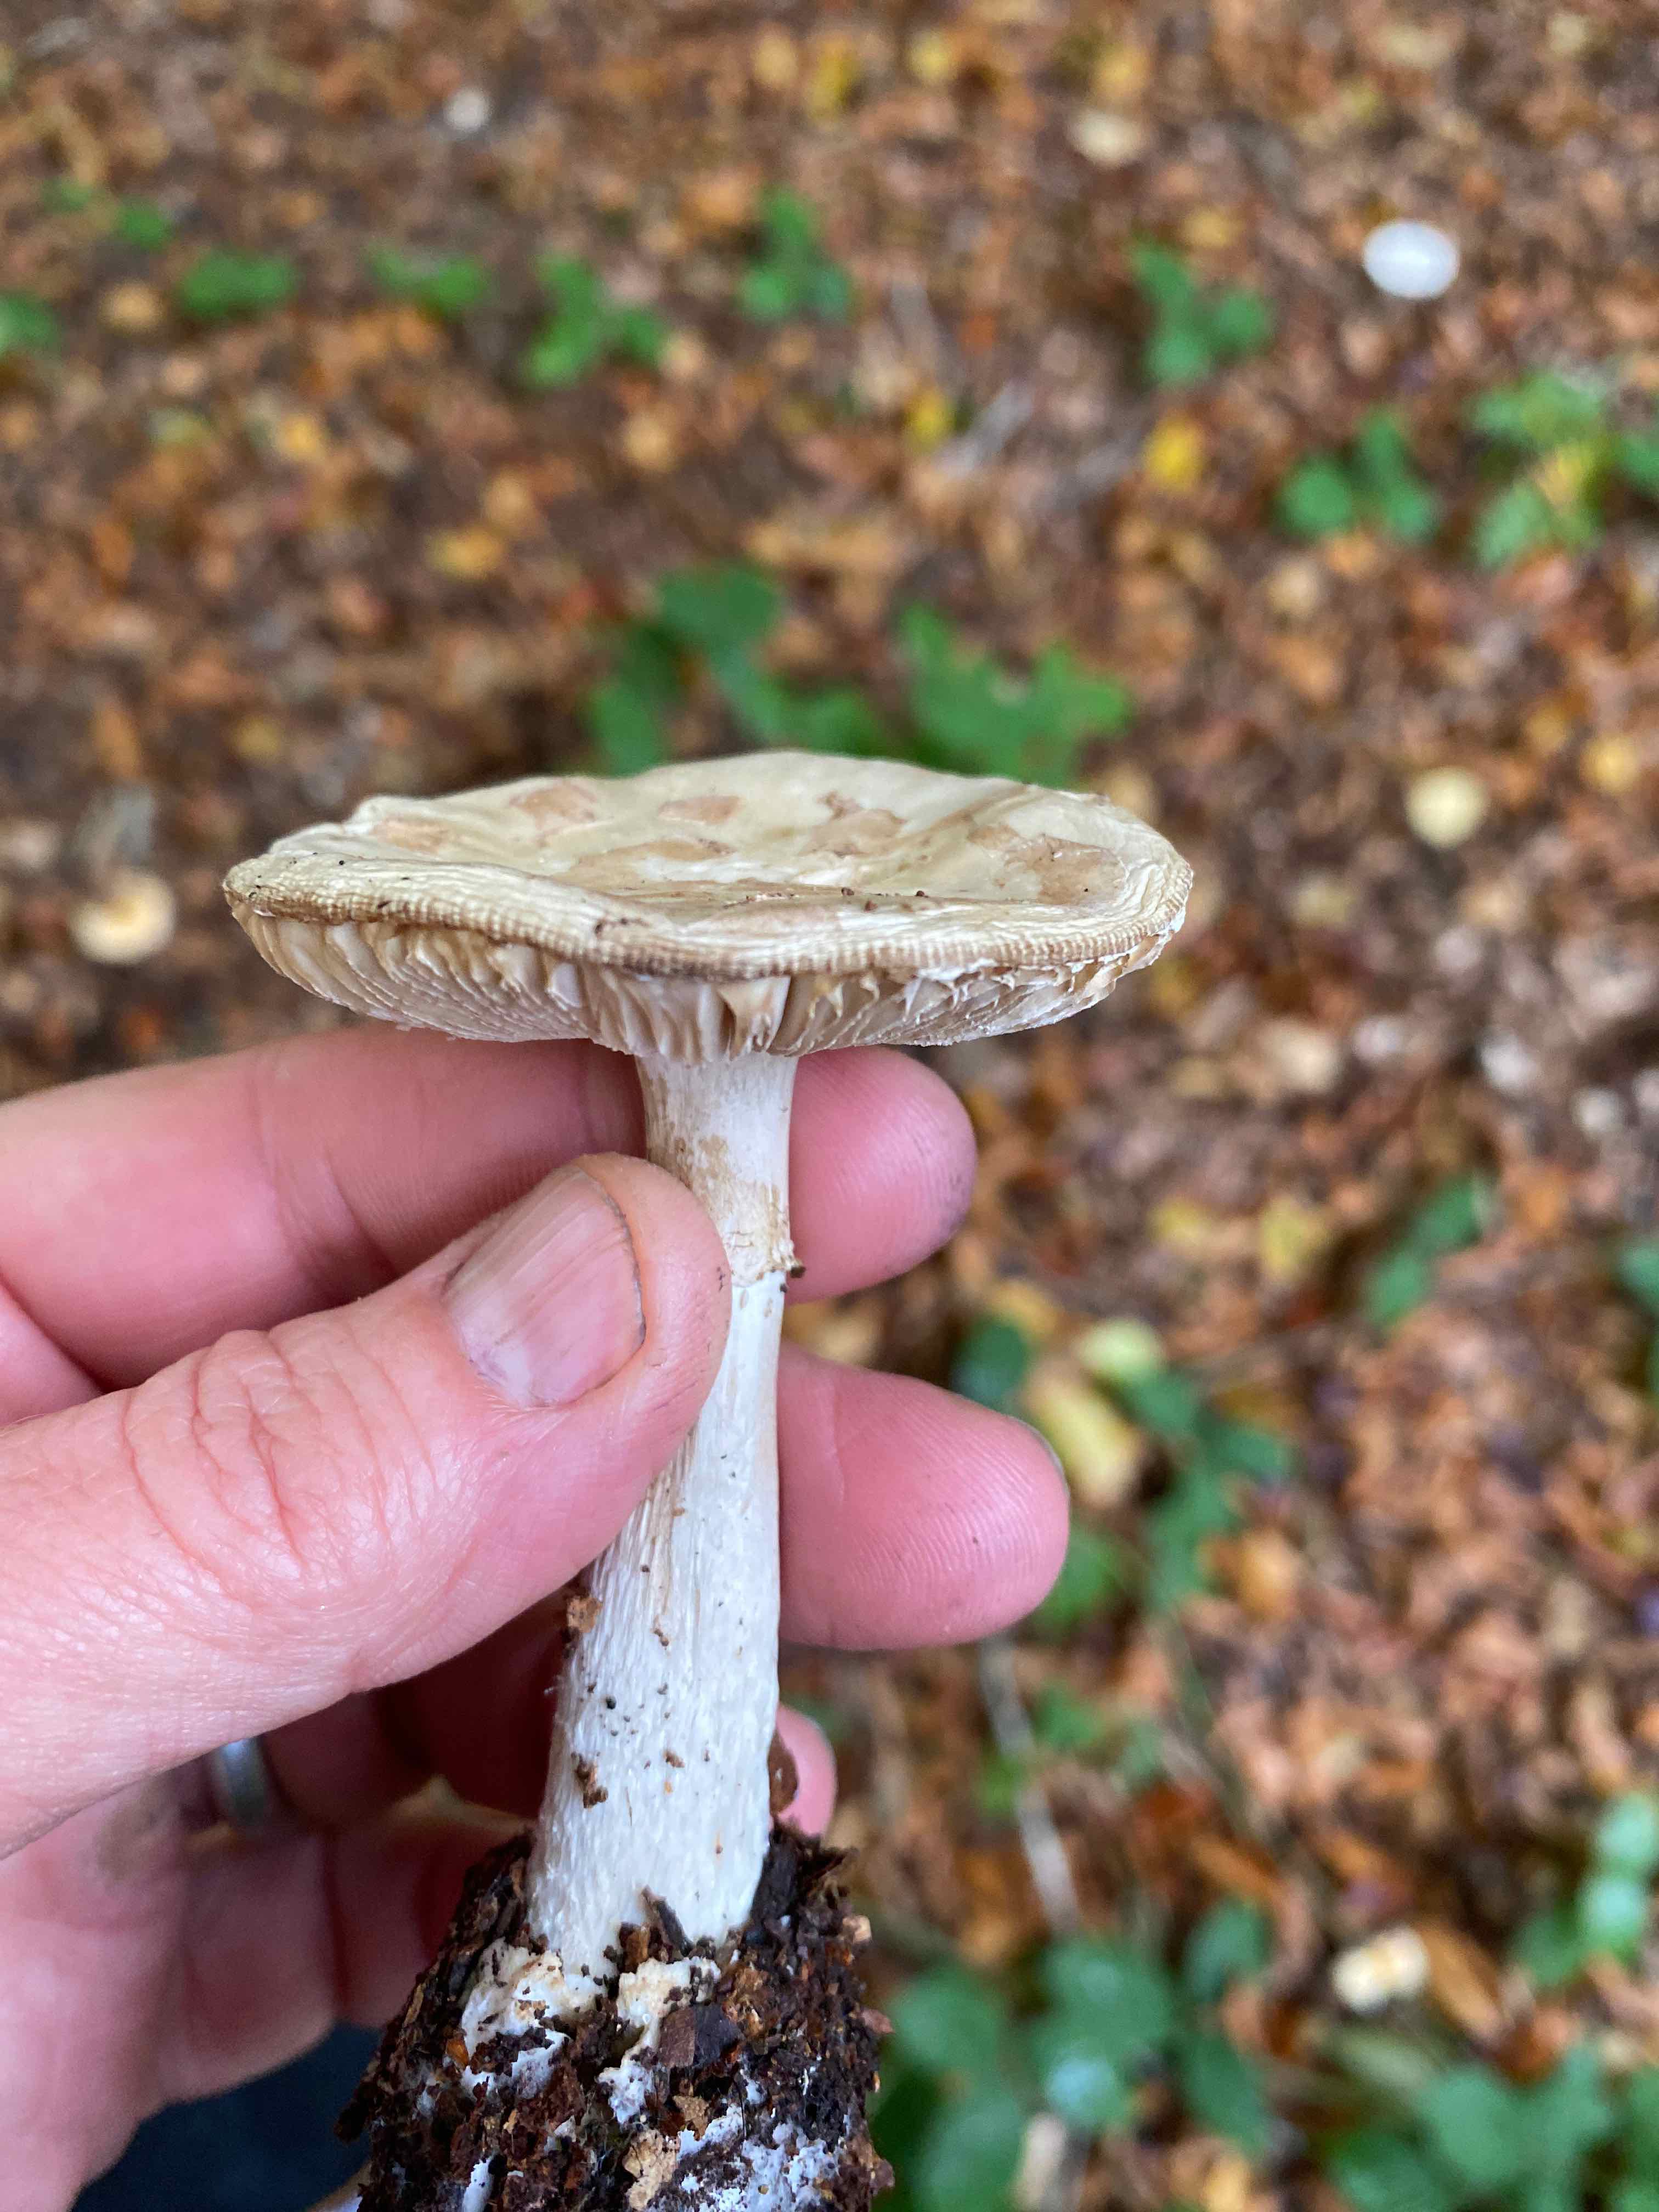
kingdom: Fungi
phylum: Basidiomycota
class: Agaricomycetes
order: Agaricales
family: Amanitaceae
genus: Amanita
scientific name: Amanita citrina
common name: kugleknoldet fluesvamp
